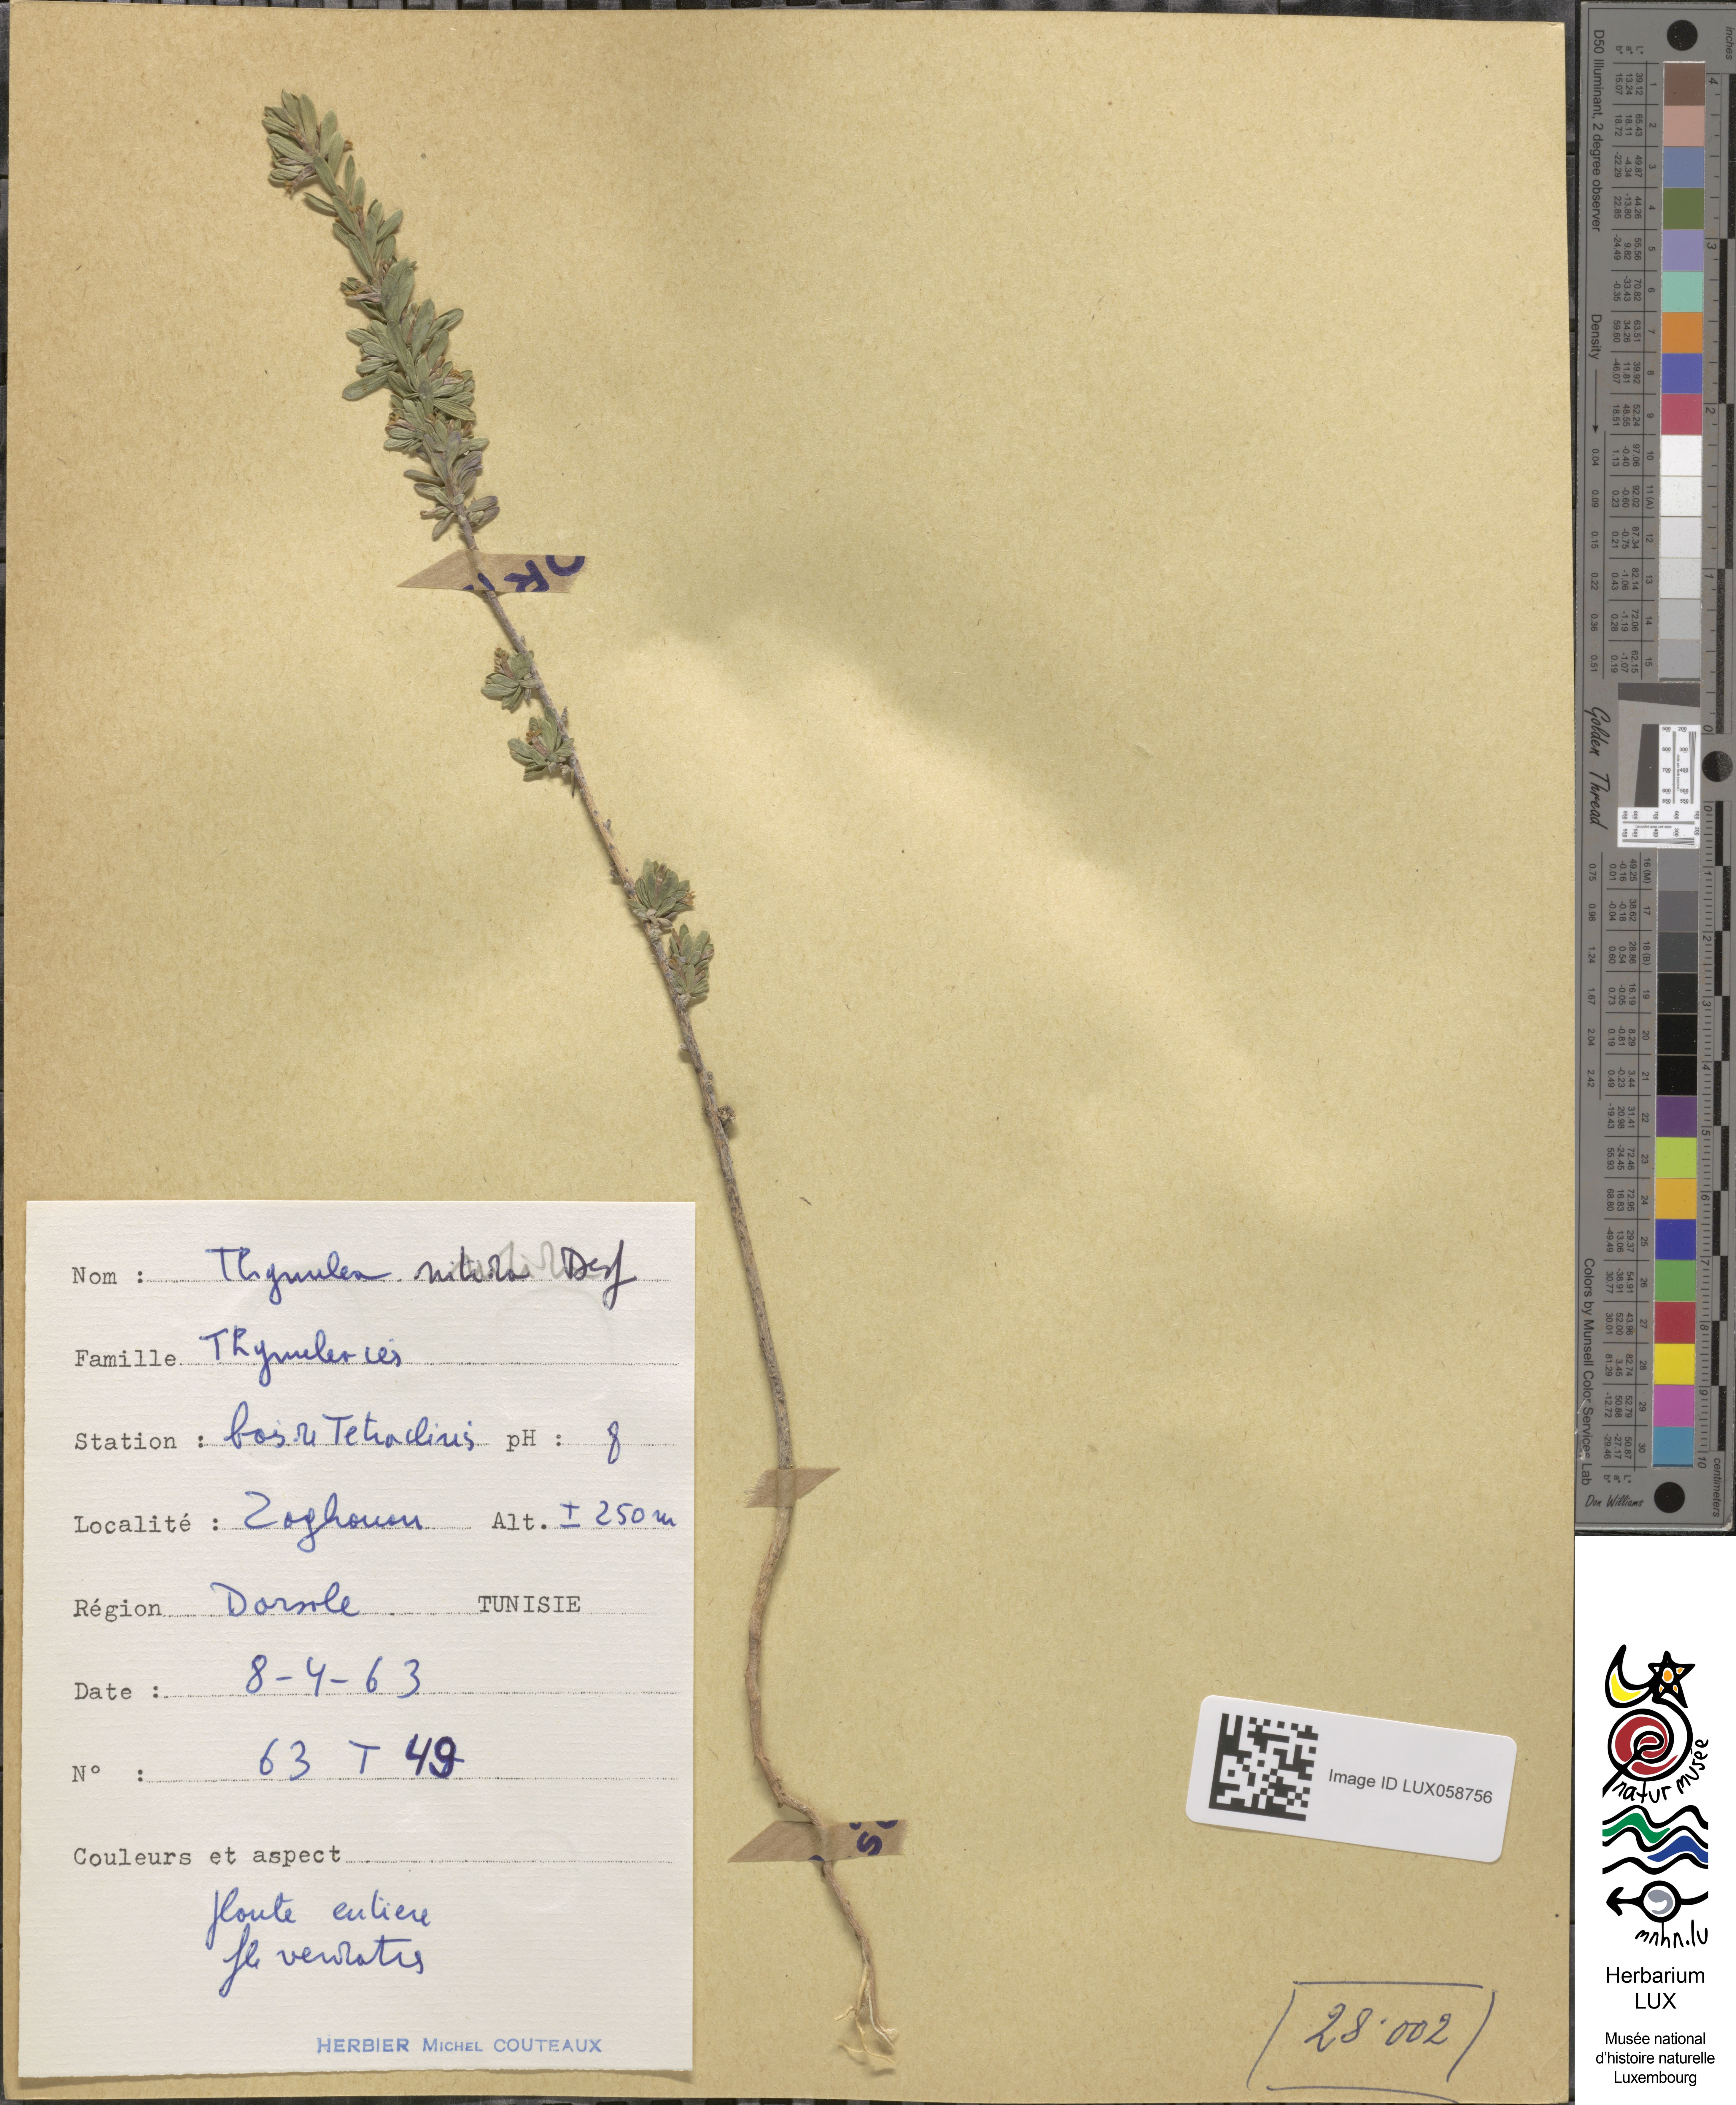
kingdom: Plantae
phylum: Tracheophyta
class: Magnoliopsida
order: Malvales
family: Thymelaeaceae
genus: Thymelaea
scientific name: Thymelaea argentata
